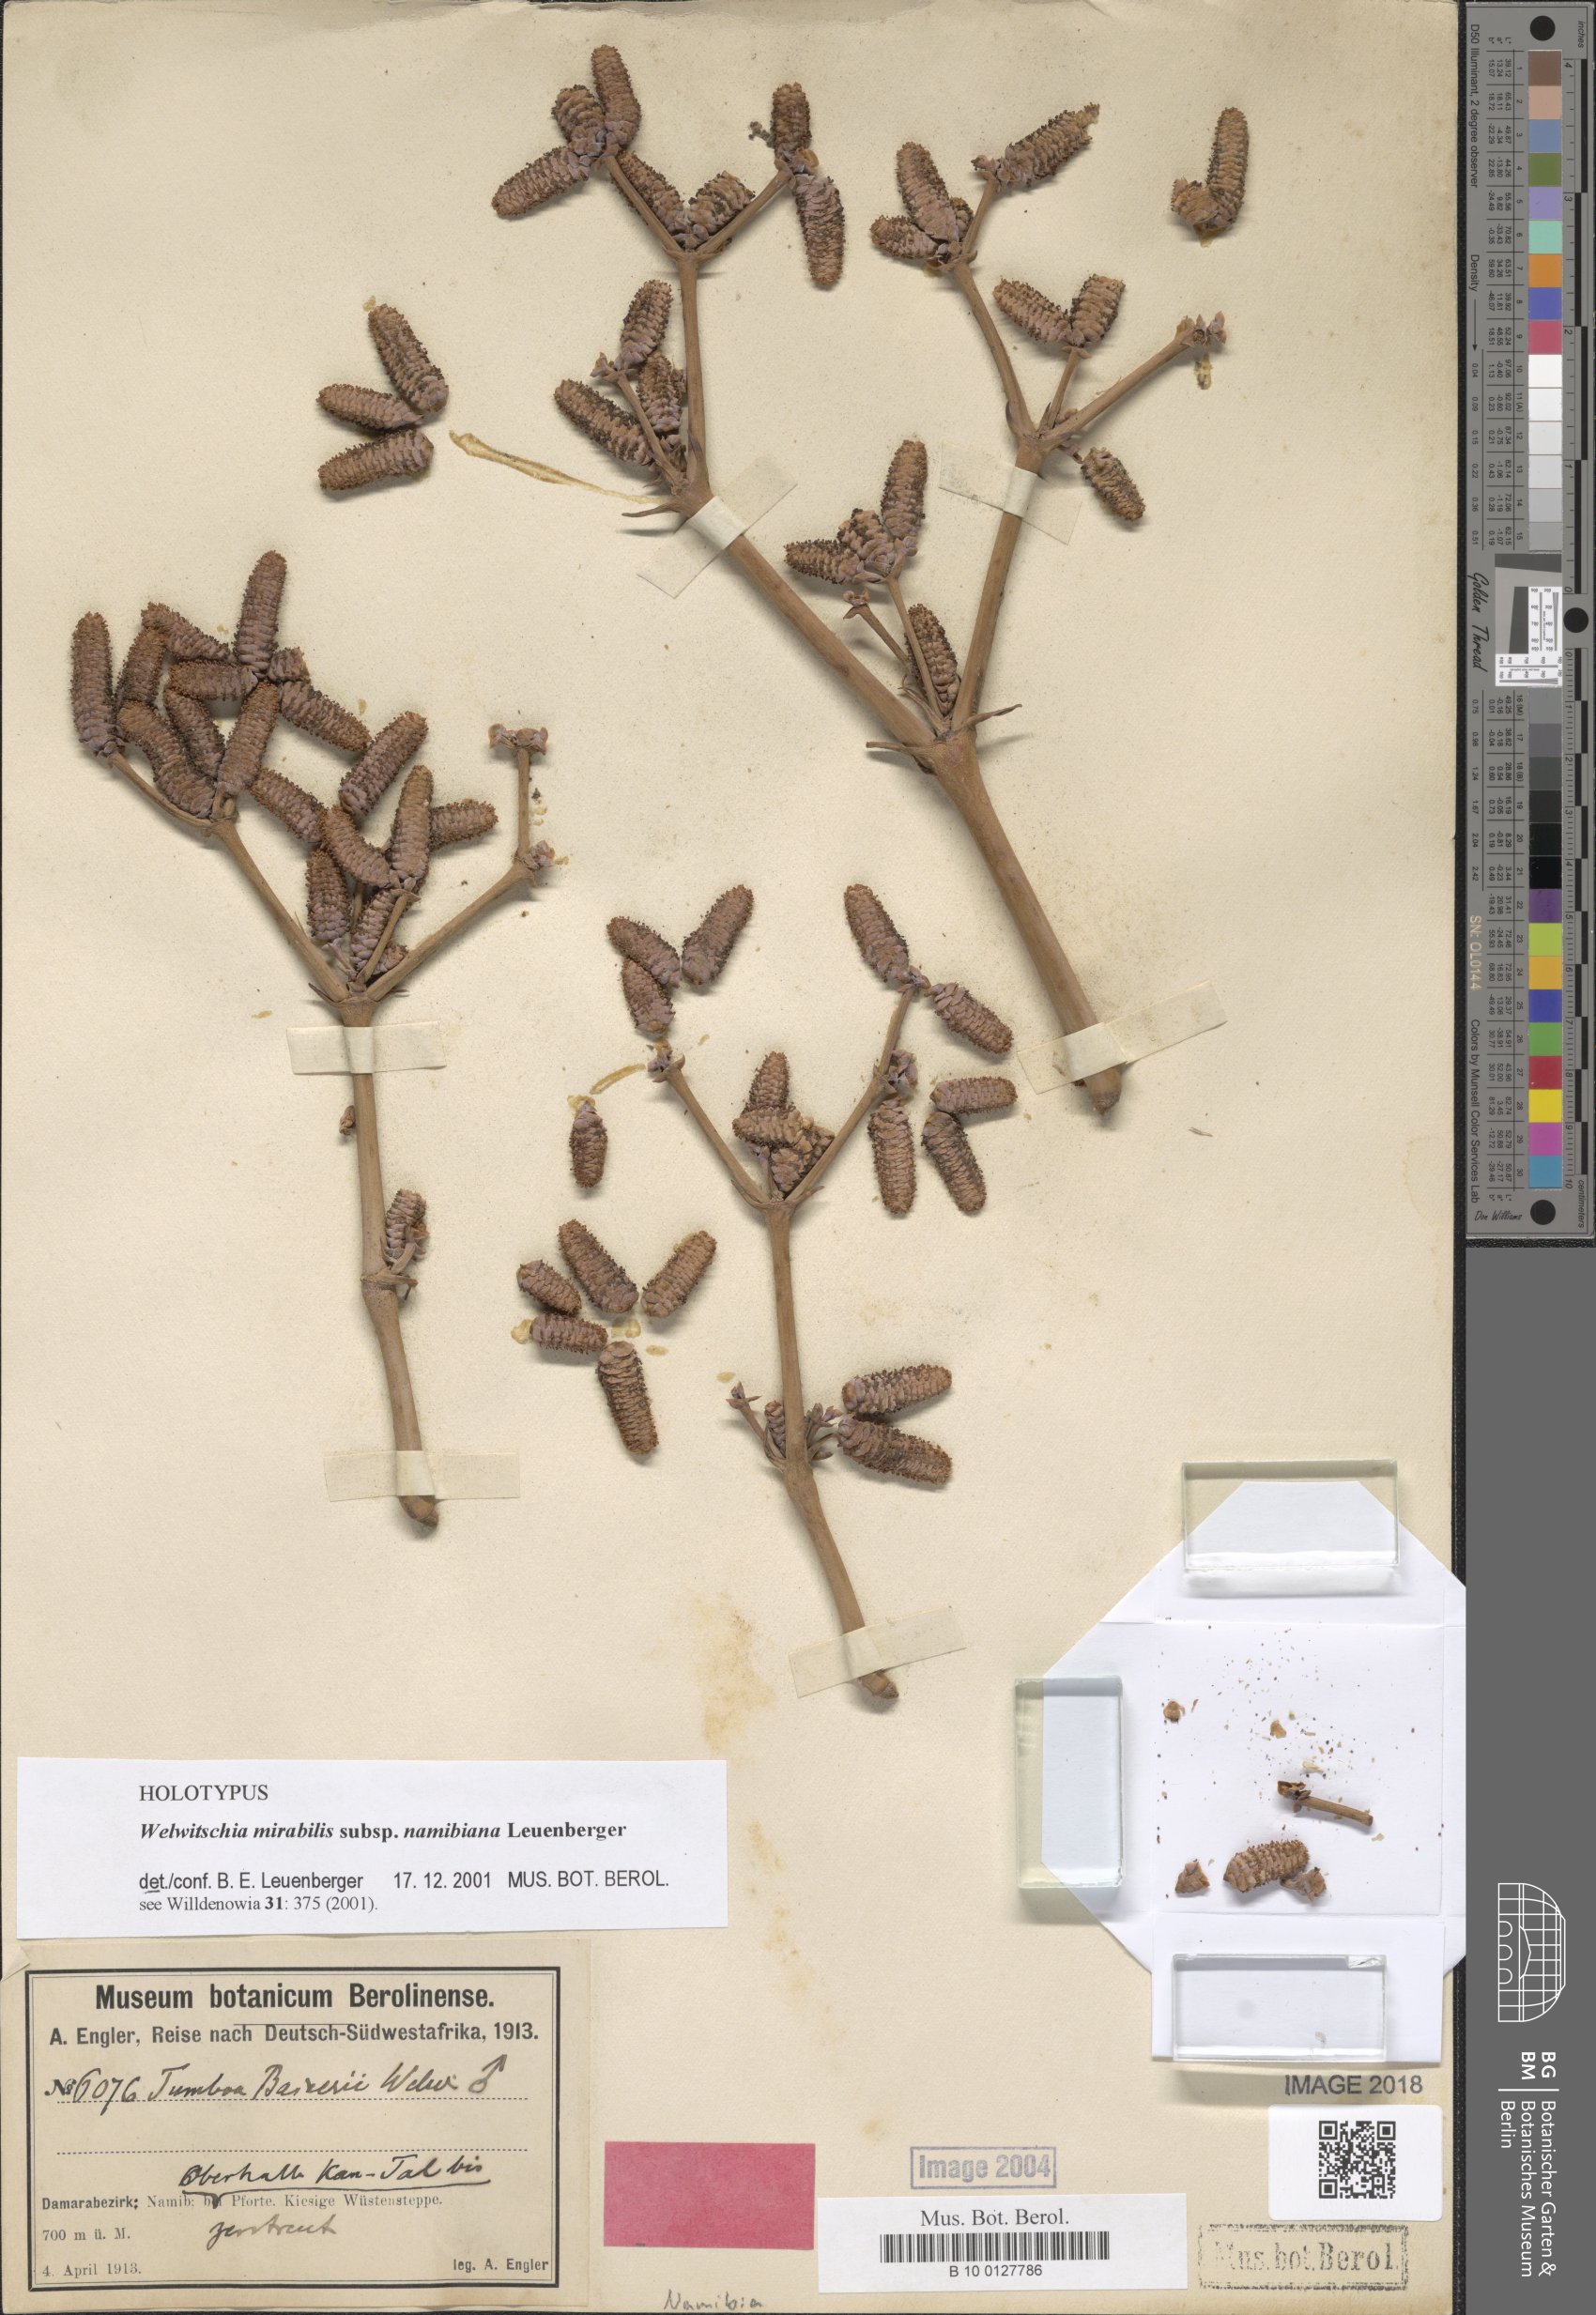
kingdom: Plantae
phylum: Tracheophyta
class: Gnetopsida
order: Welwitschiales
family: Welwitschiaceae
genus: Welwitschia
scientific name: Welwitschia mirabilis
